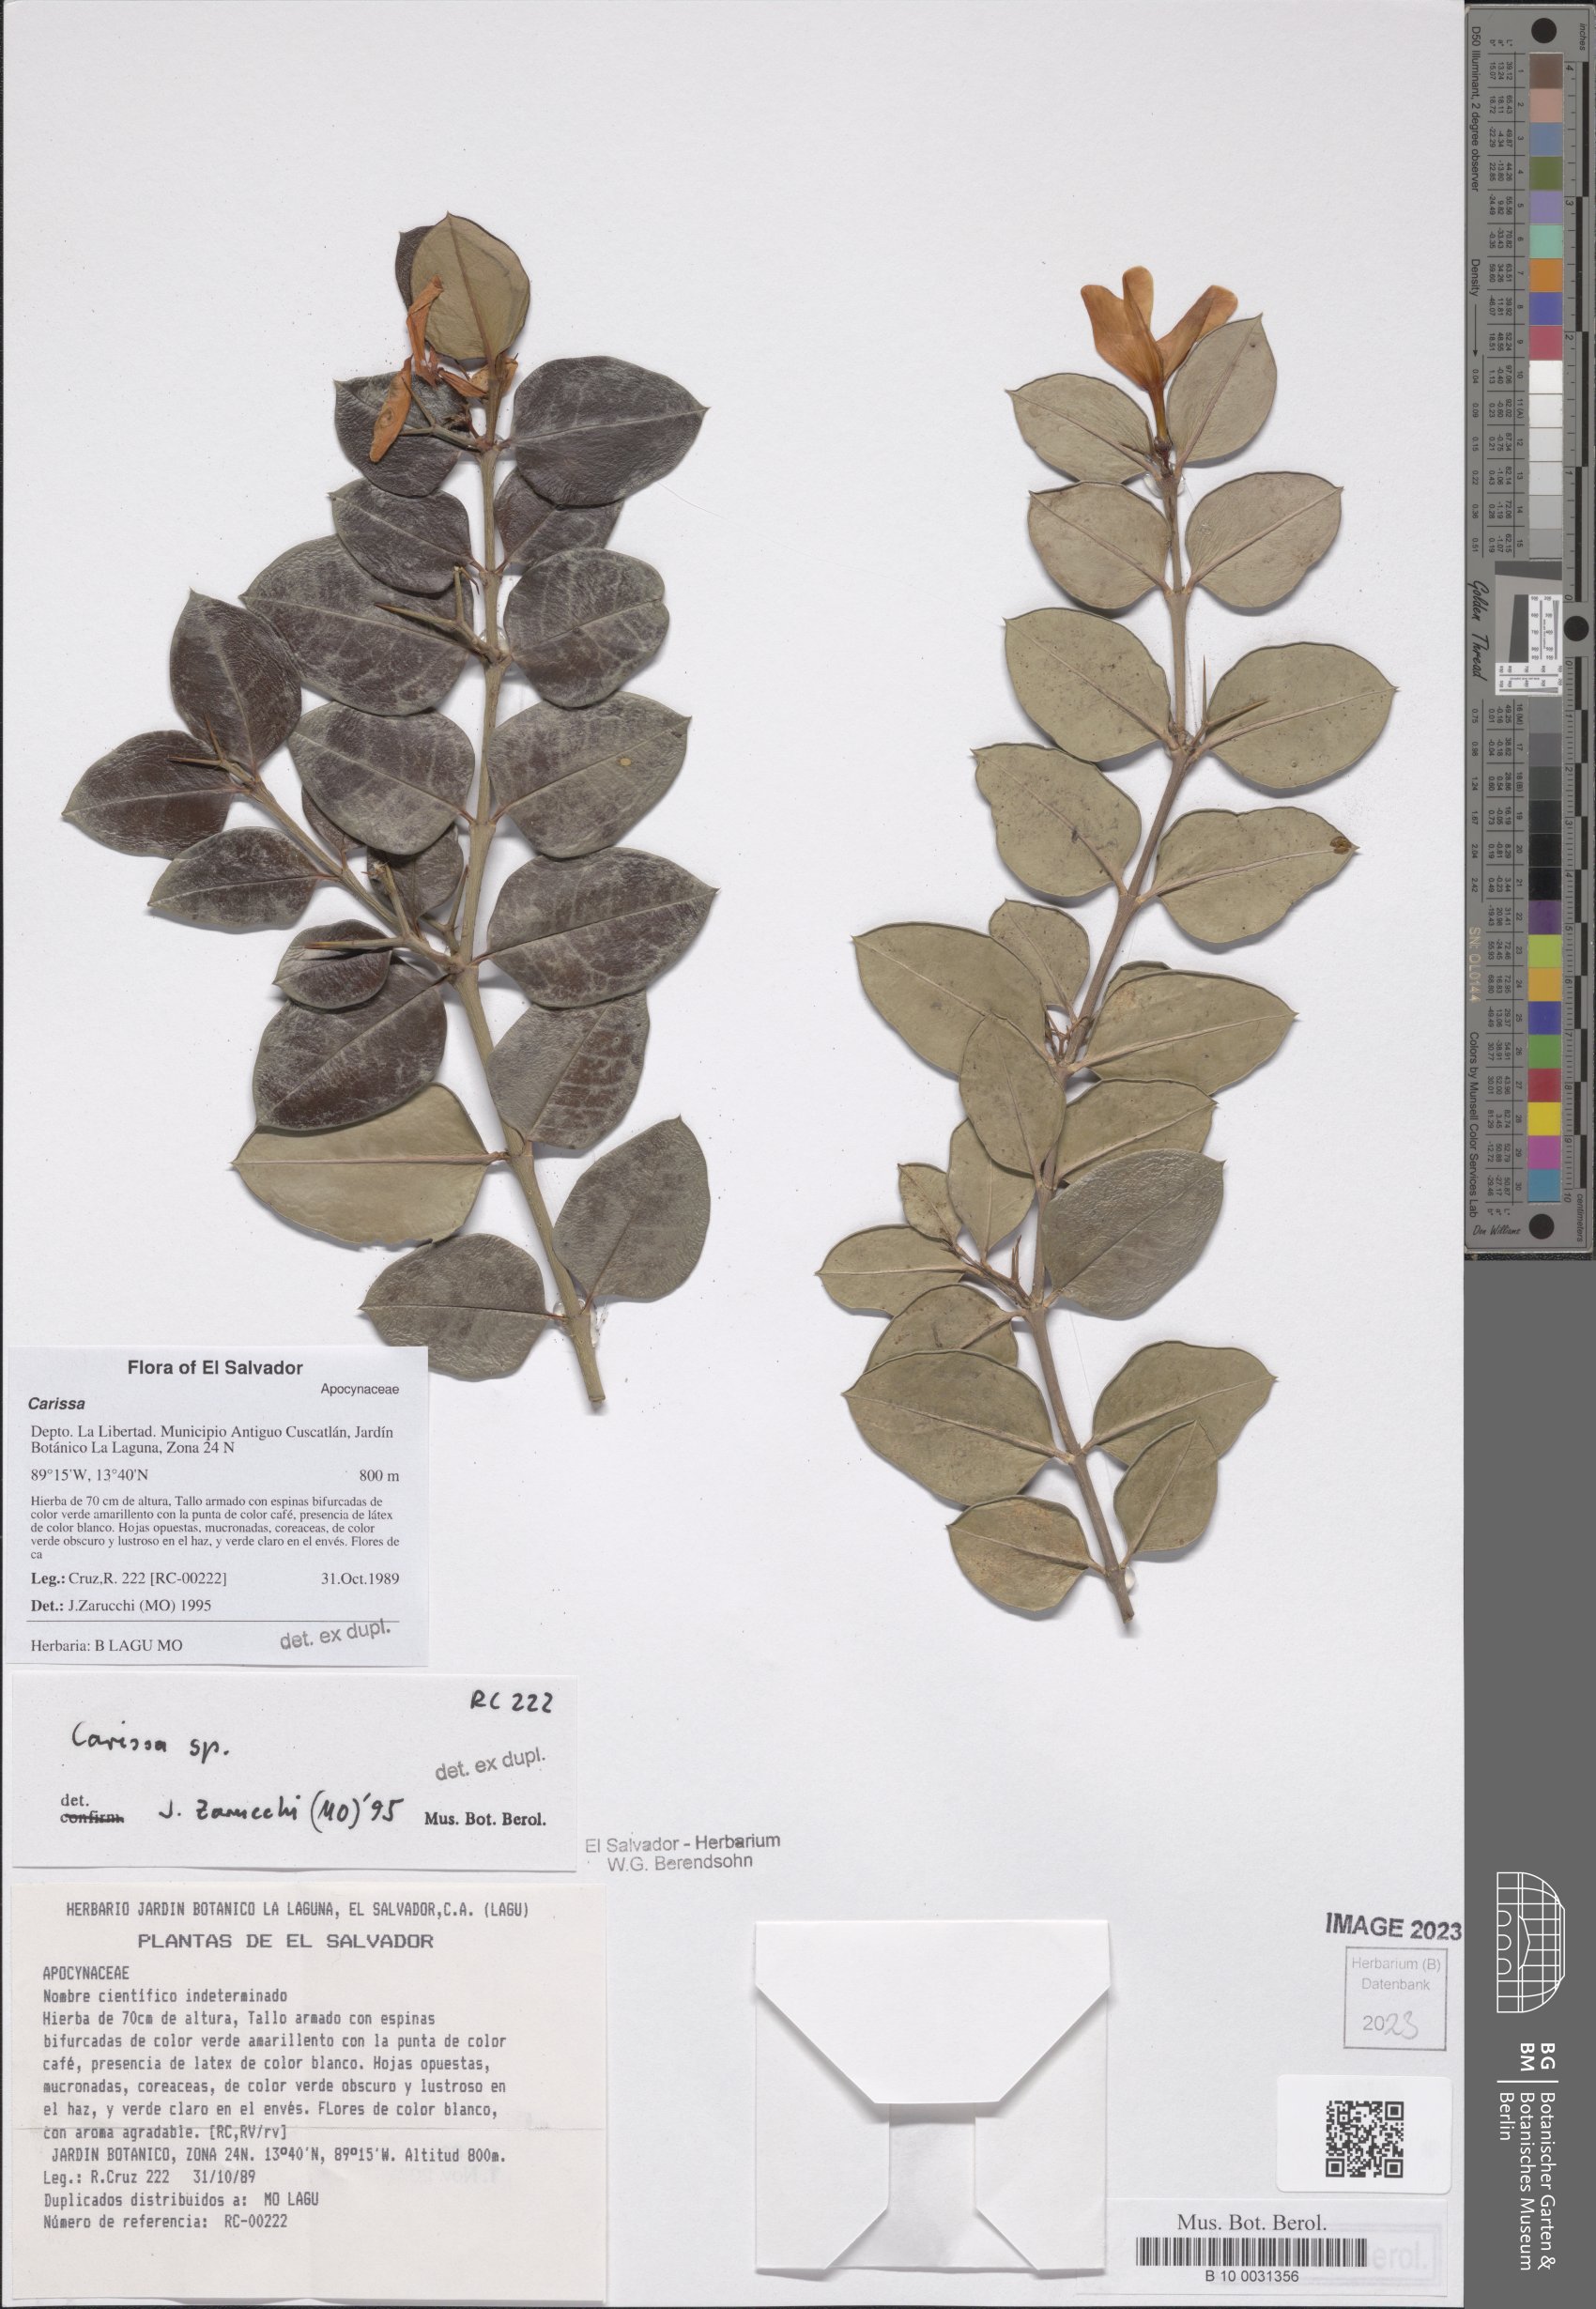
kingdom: Plantae
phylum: Tracheophyta
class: Magnoliopsida
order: Gentianales
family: Apocynaceae
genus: Carissa
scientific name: Carissa
